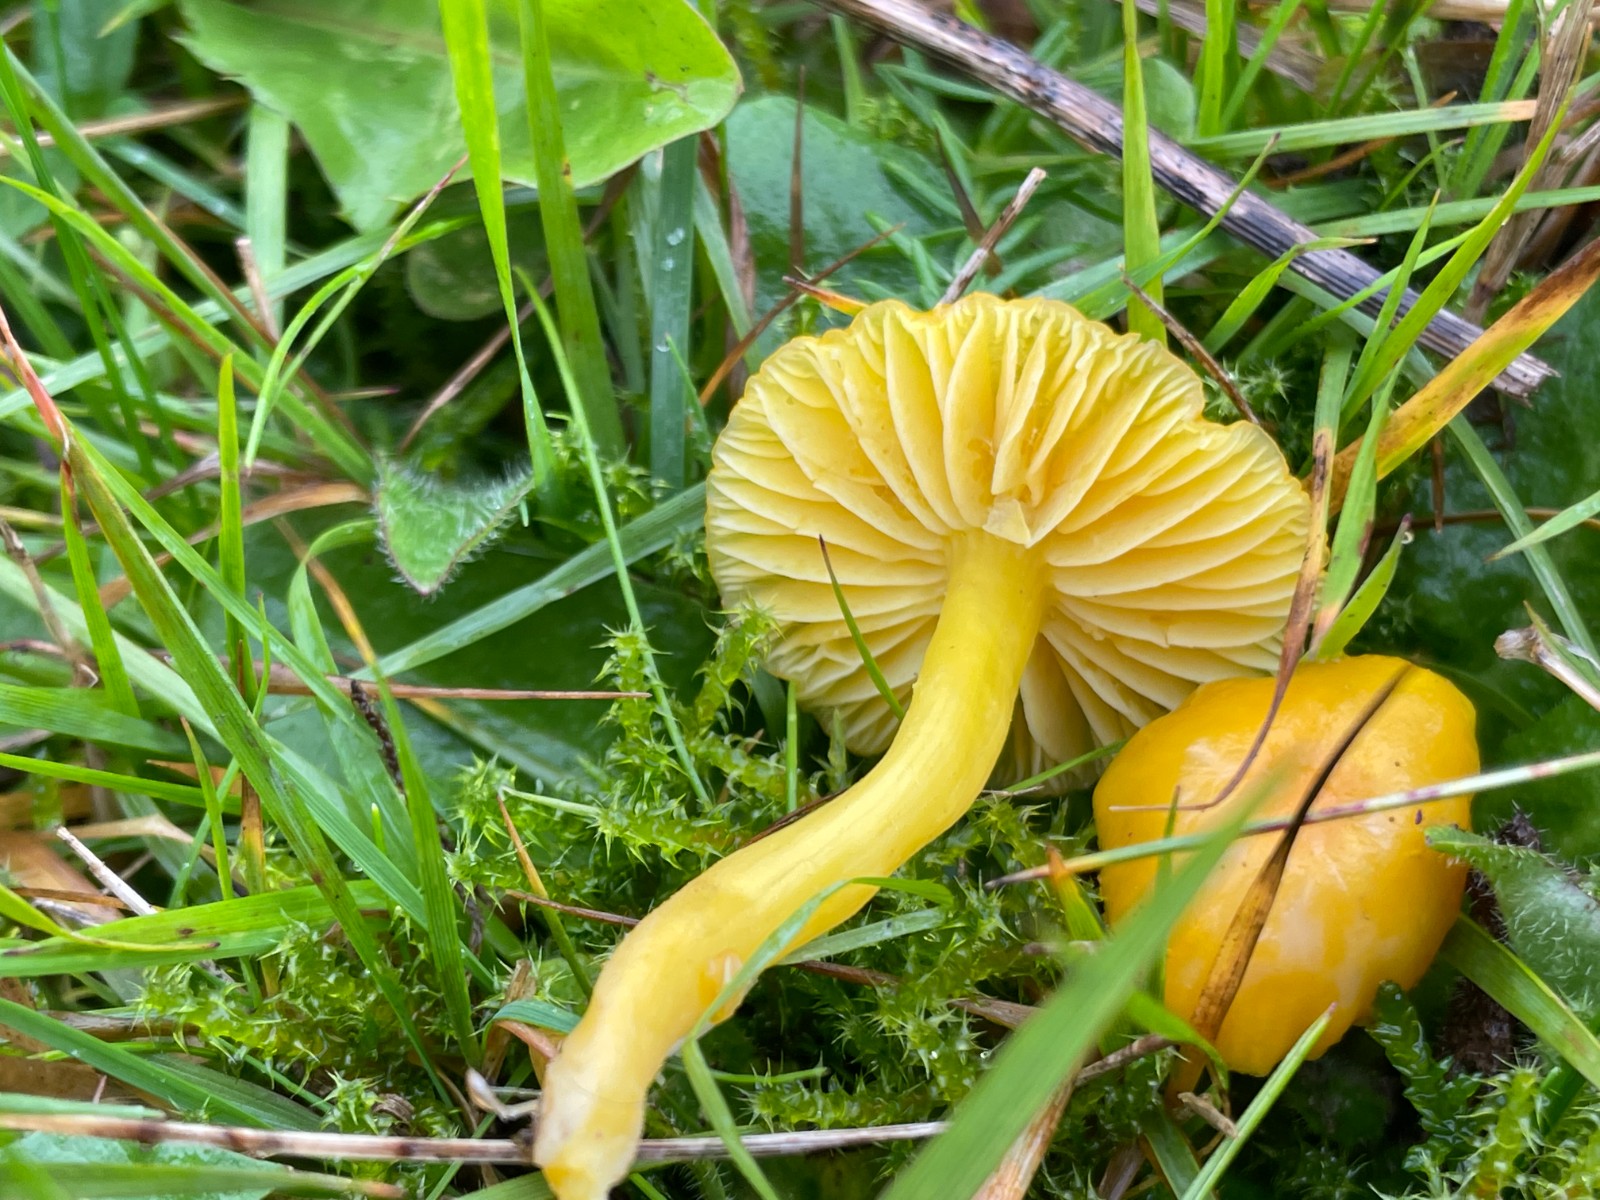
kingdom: Fungi
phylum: Basidiomycota
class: Agaricomycetes
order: Agaricales
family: Hygrophoraceae
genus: Hygrocybe
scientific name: Hygrocybe chlorophana
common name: gul vokshat
